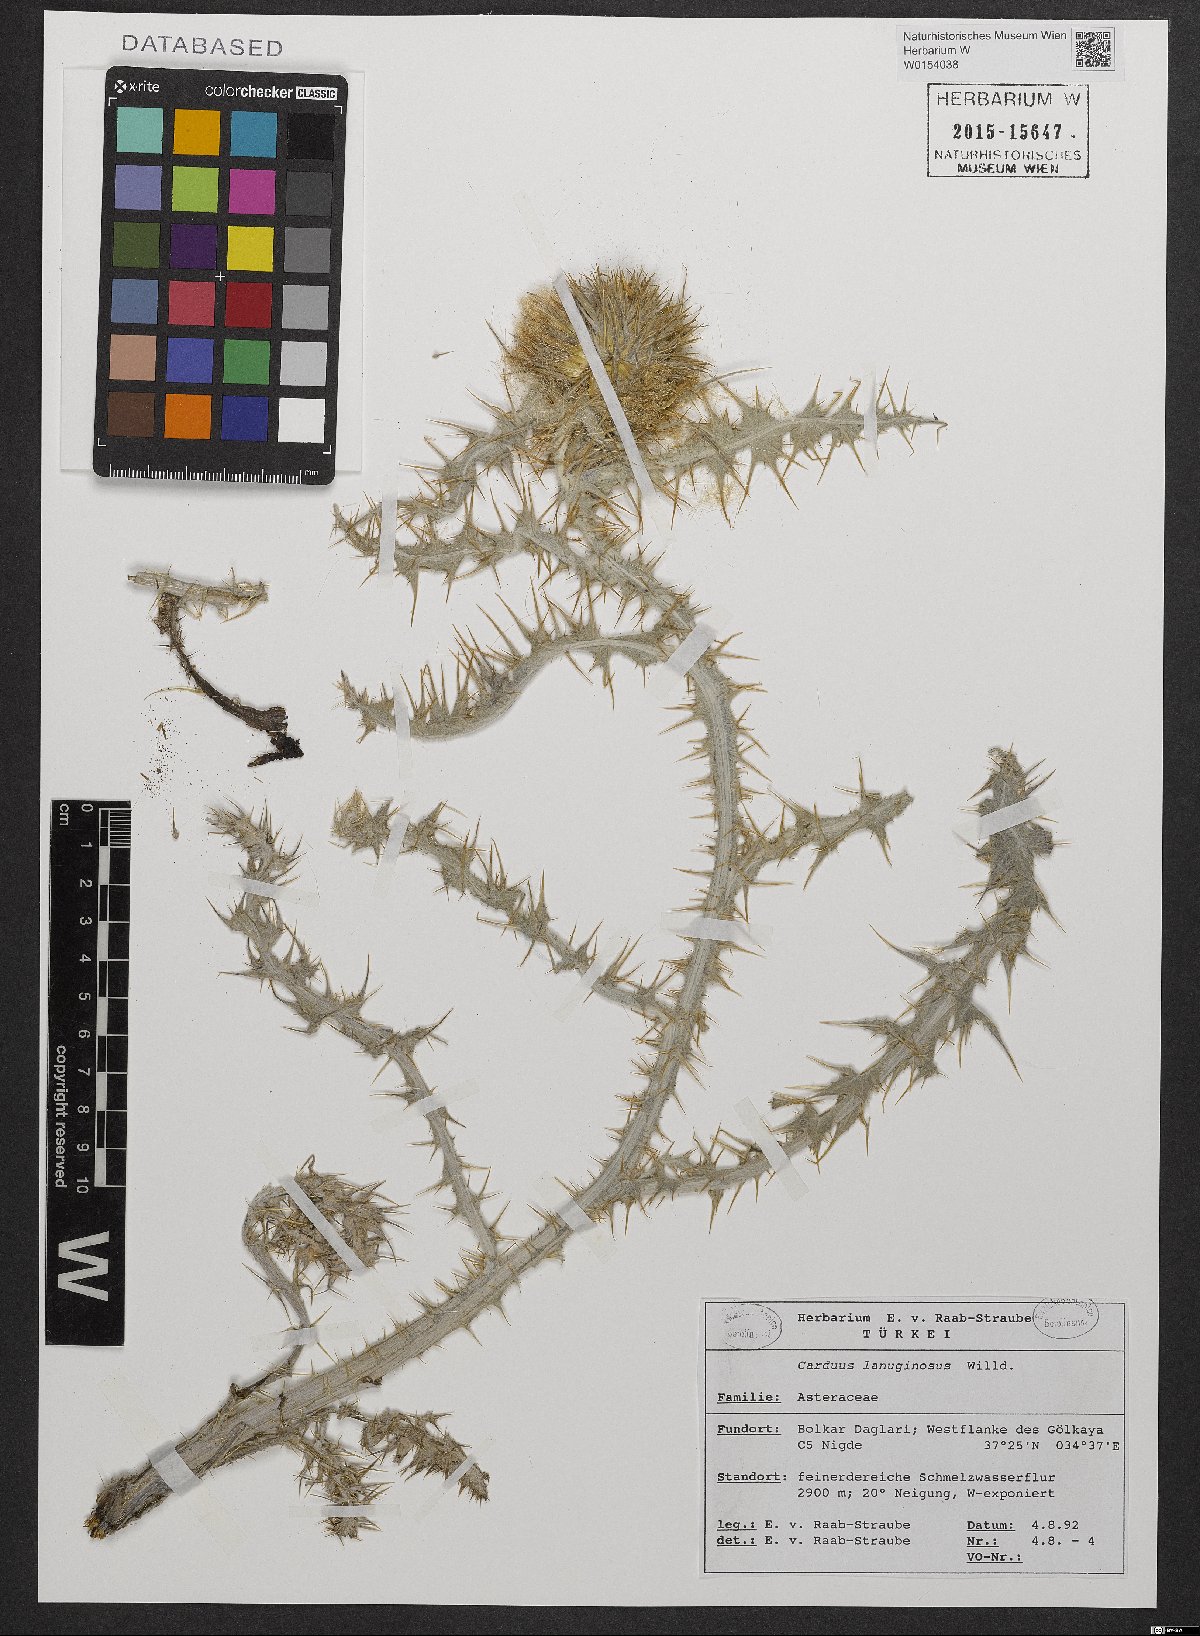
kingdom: Plantae
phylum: Tracheophyta
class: Magnoliopsida
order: Asterales
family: Asteraceae
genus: Carduus
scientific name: Carduus lanuginosus
